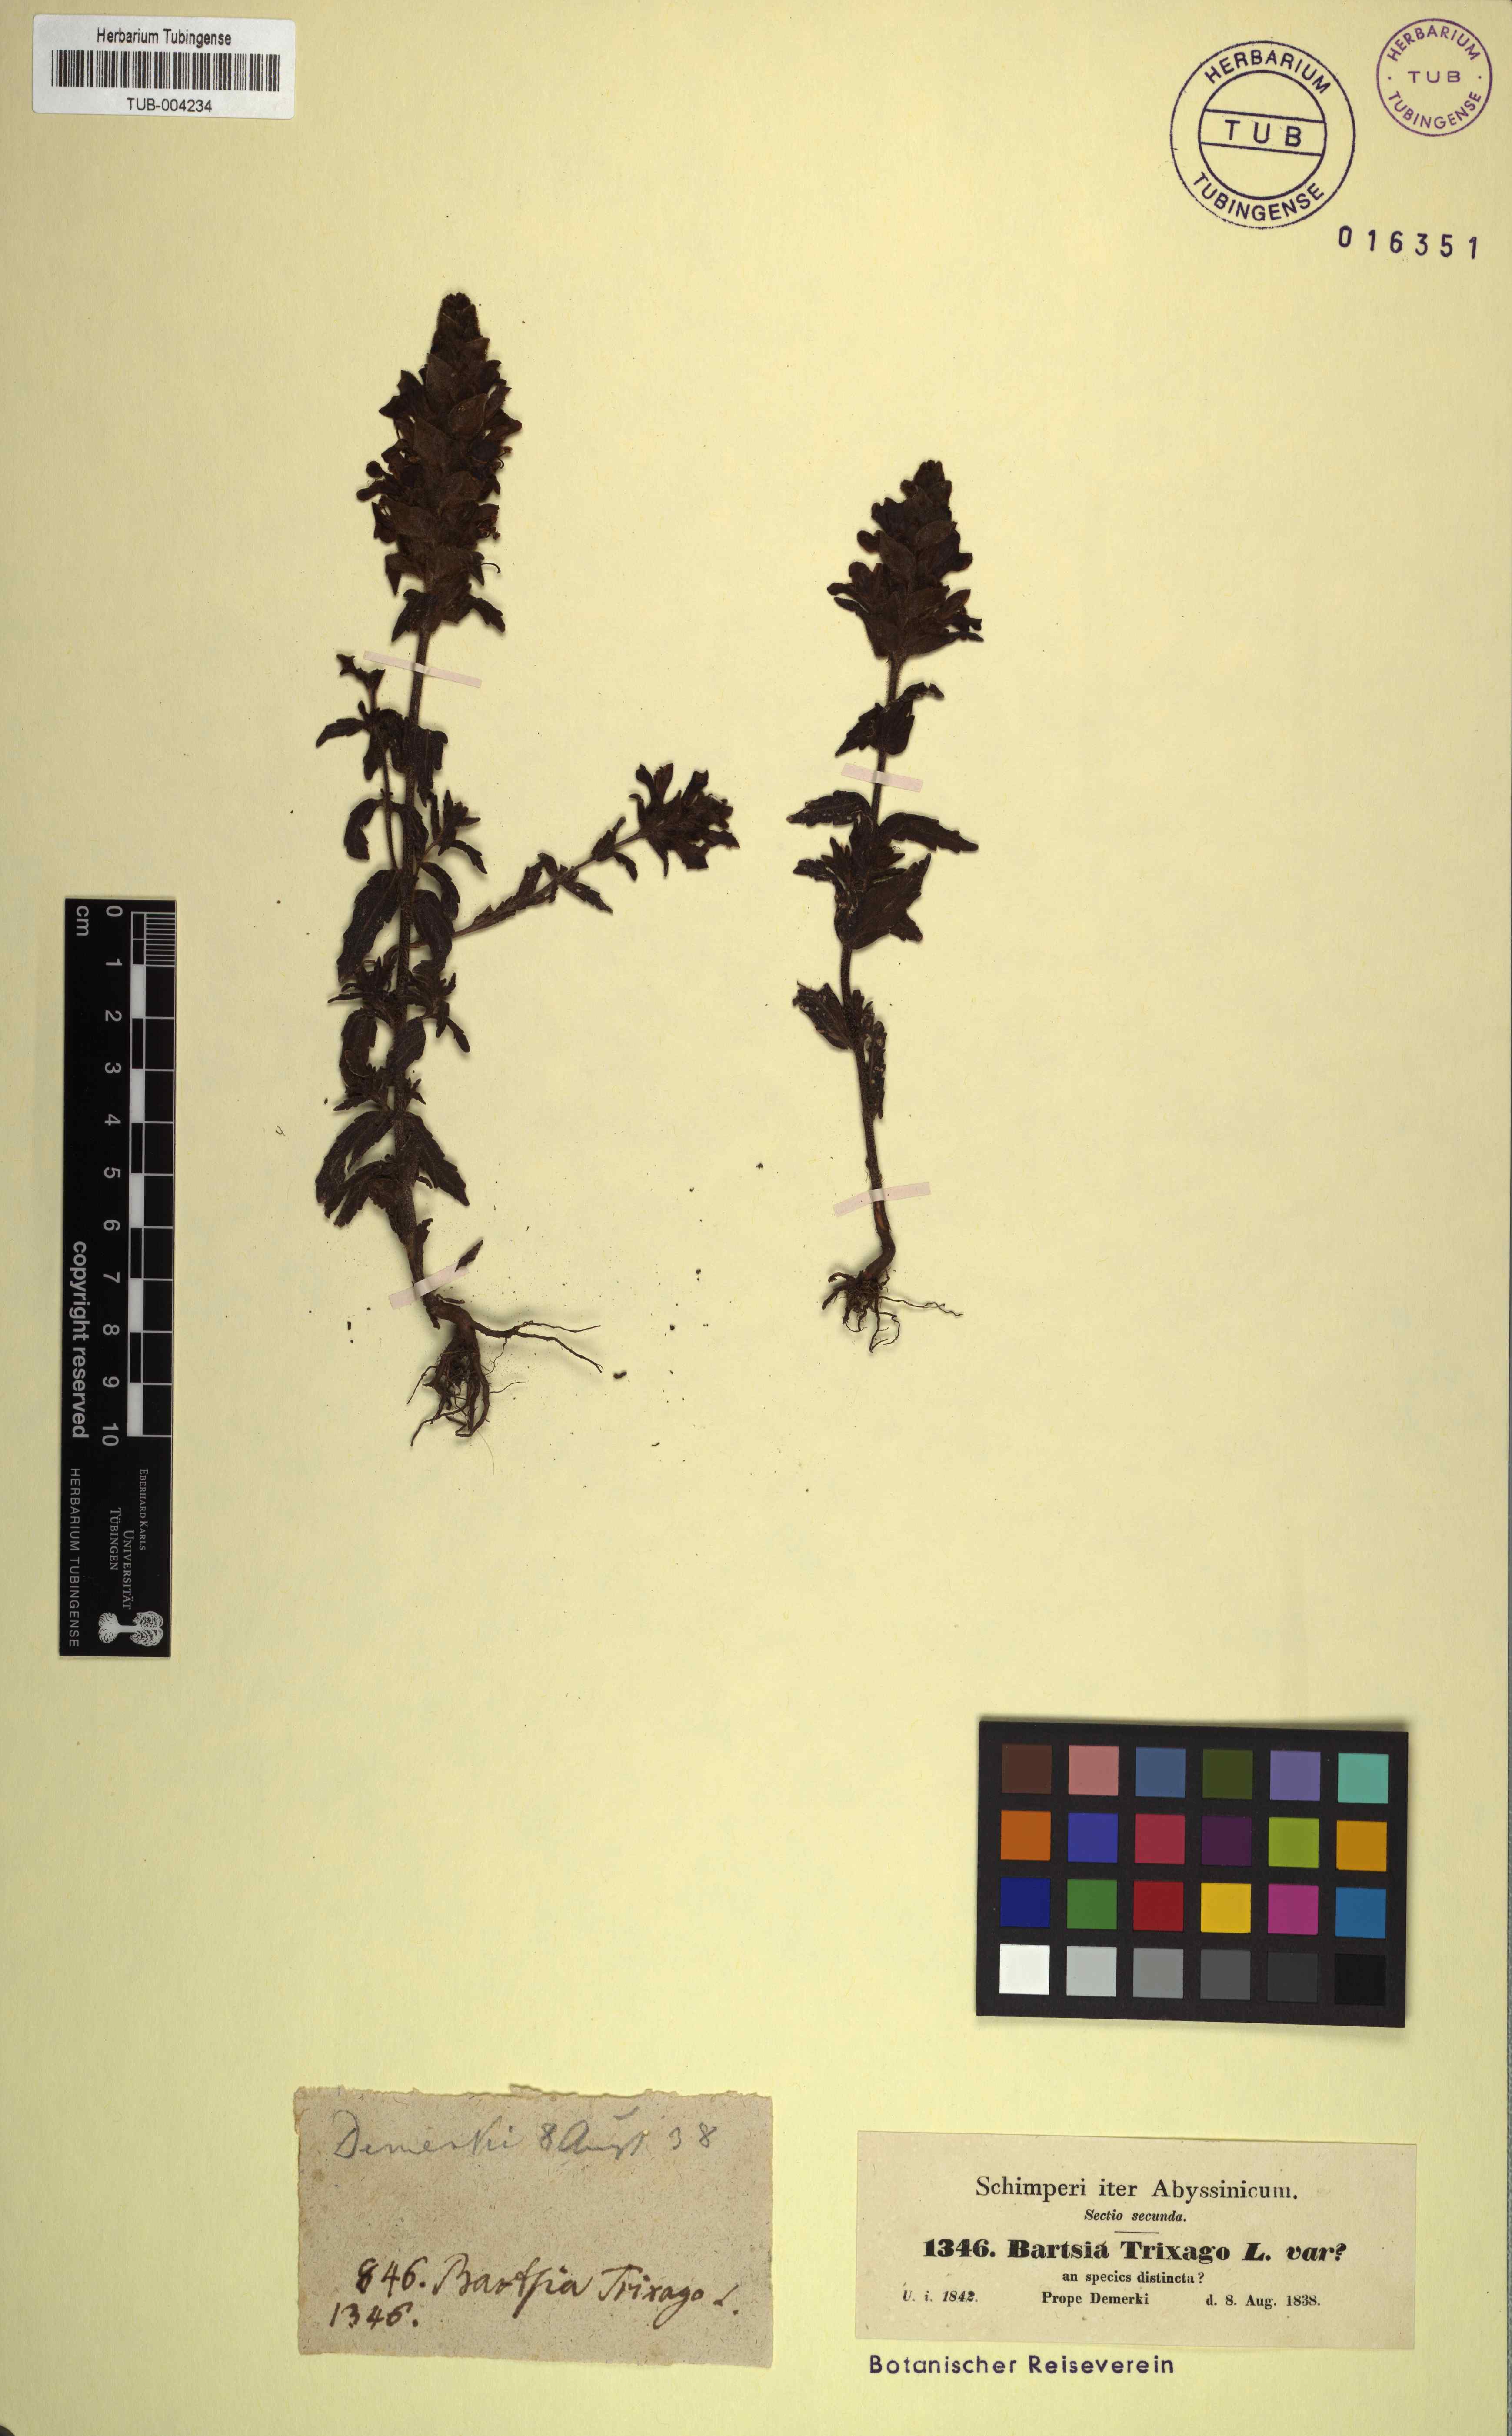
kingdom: Plantae
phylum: Tracheophyta
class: Magnoliopsida
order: Lamiales
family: Orobanchaceae
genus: Bellardia
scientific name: Bellardia trixago
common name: Mediterranean lineseed
